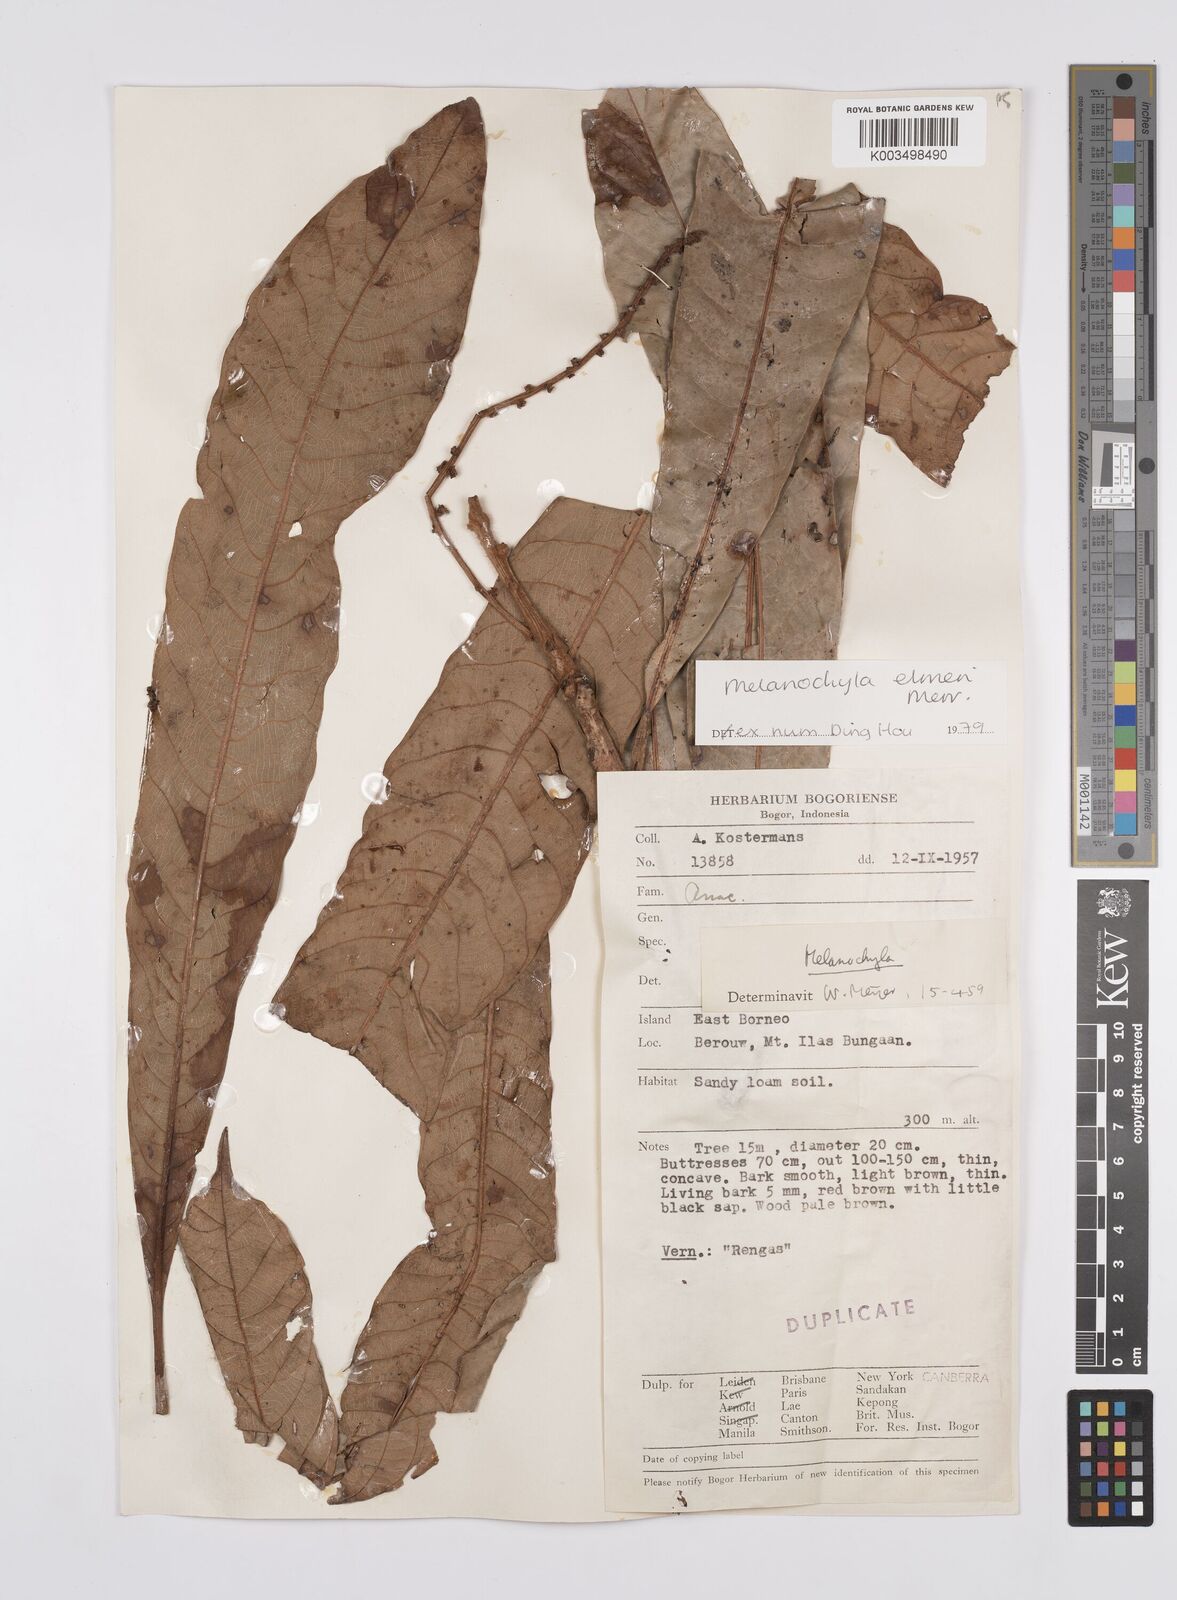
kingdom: Plantae
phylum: Tracheophyta
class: Magnoliopsida
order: Sapindales
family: Anacardiaceae
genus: Melanochyla
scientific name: Melanochyla elmeri
